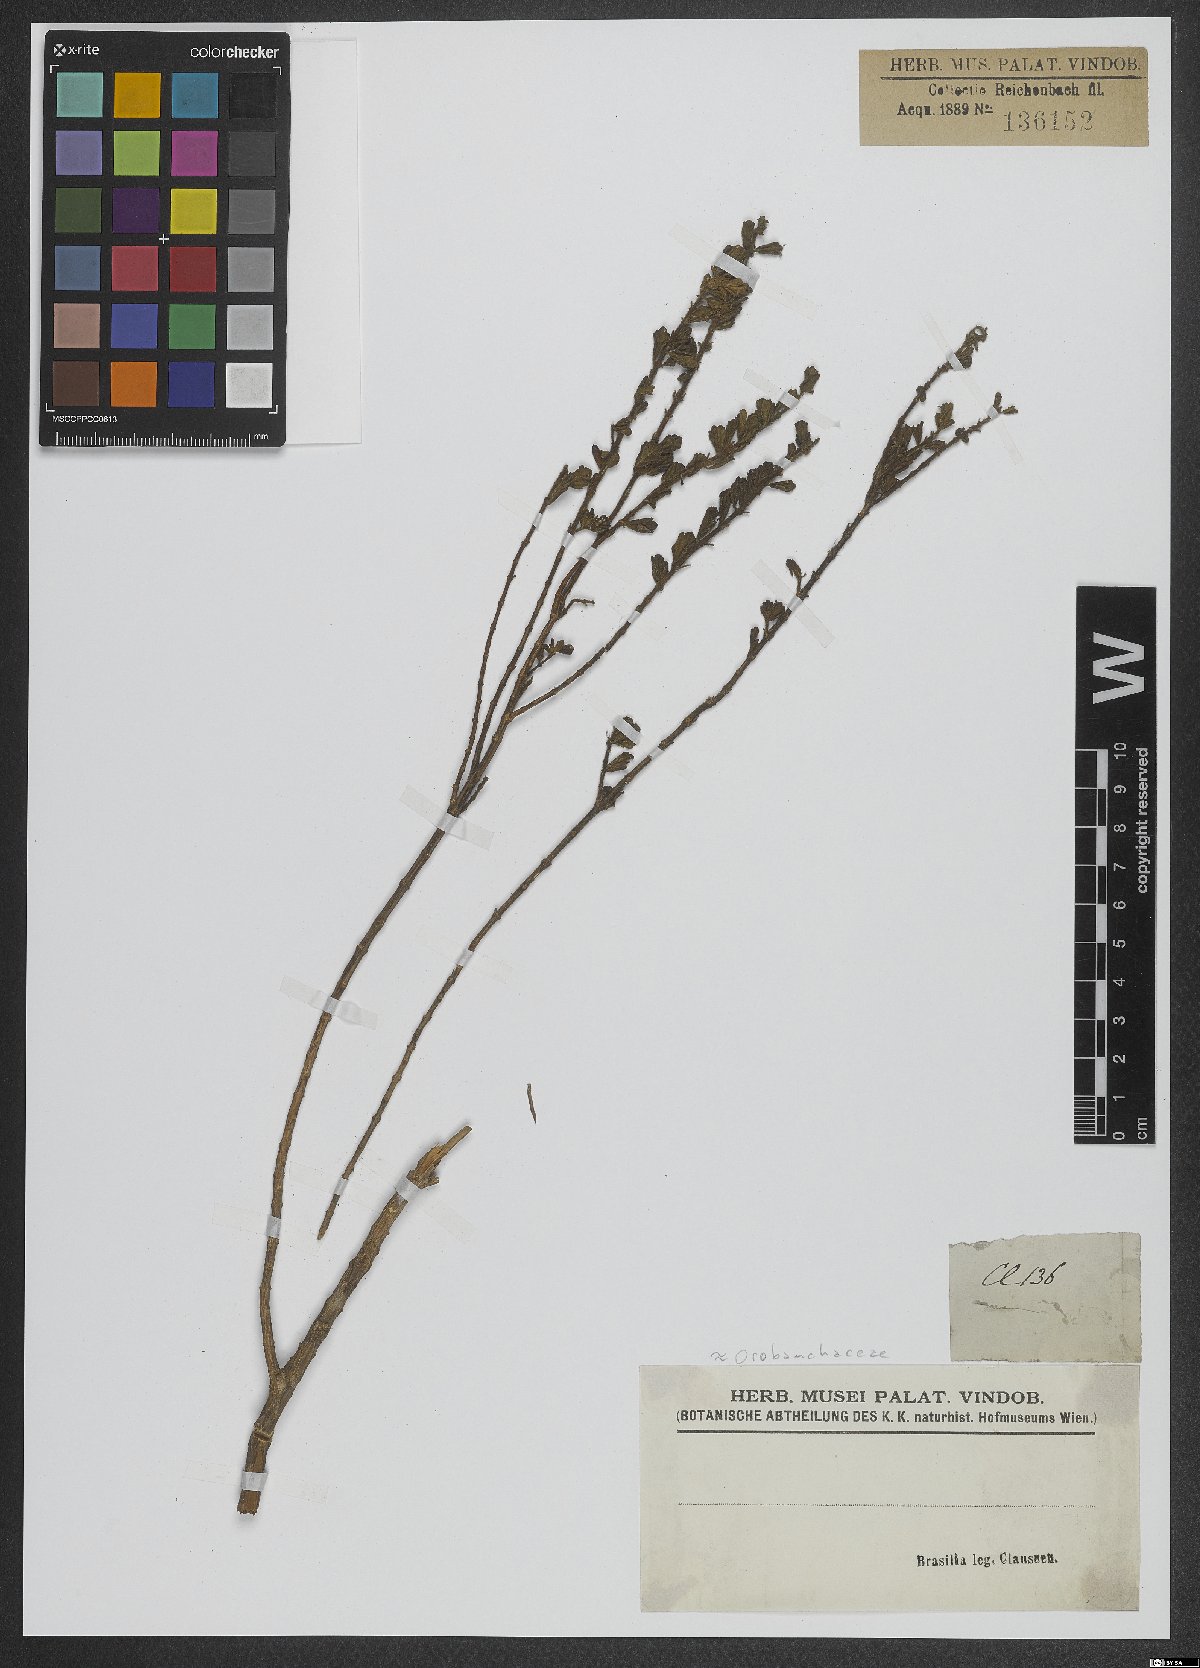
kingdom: Plantae
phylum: Tracheophyta
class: Magnoliopsida
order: Lamiales
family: Scrophulariaceae
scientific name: Scrophulariaceae
